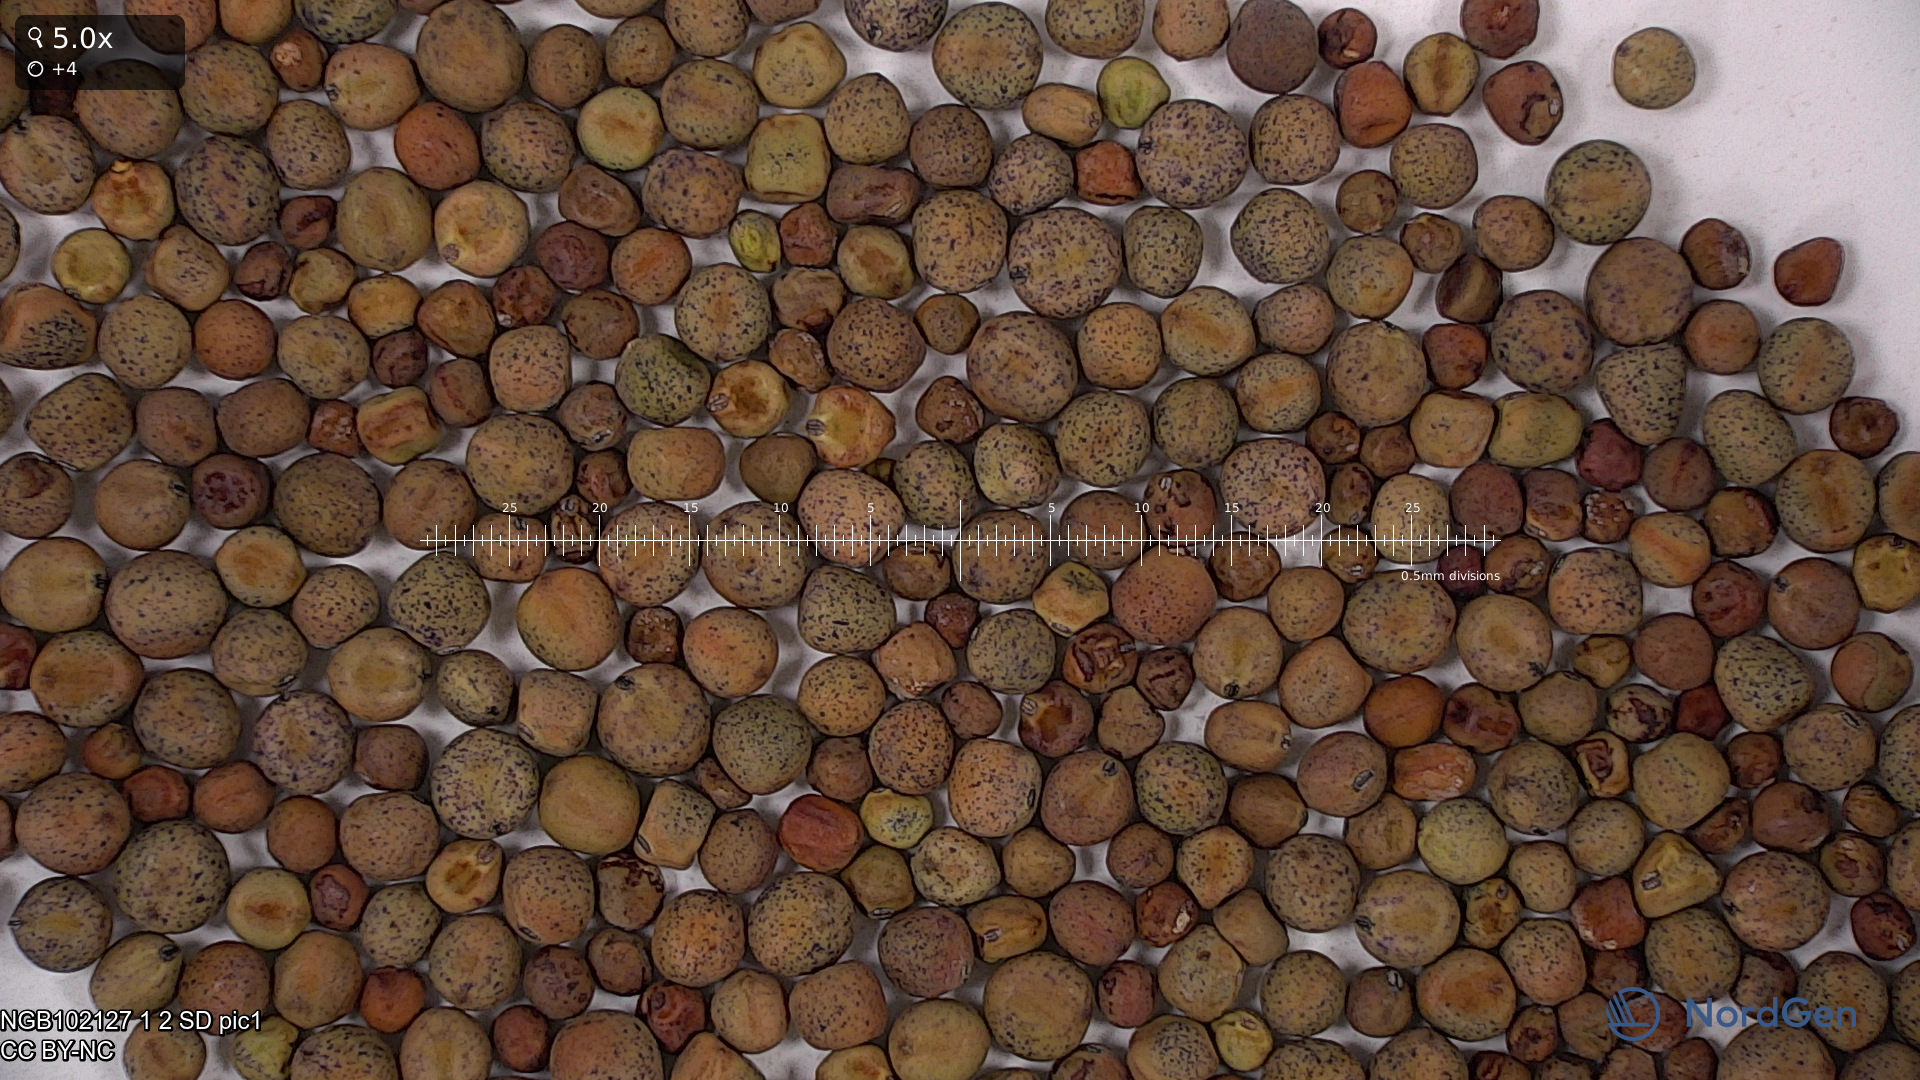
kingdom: Plantae
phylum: Tracheophyta
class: Magnoliopsida
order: Fabales
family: Fabaceae
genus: Lathyrus
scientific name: Lathyrus oleraceus
